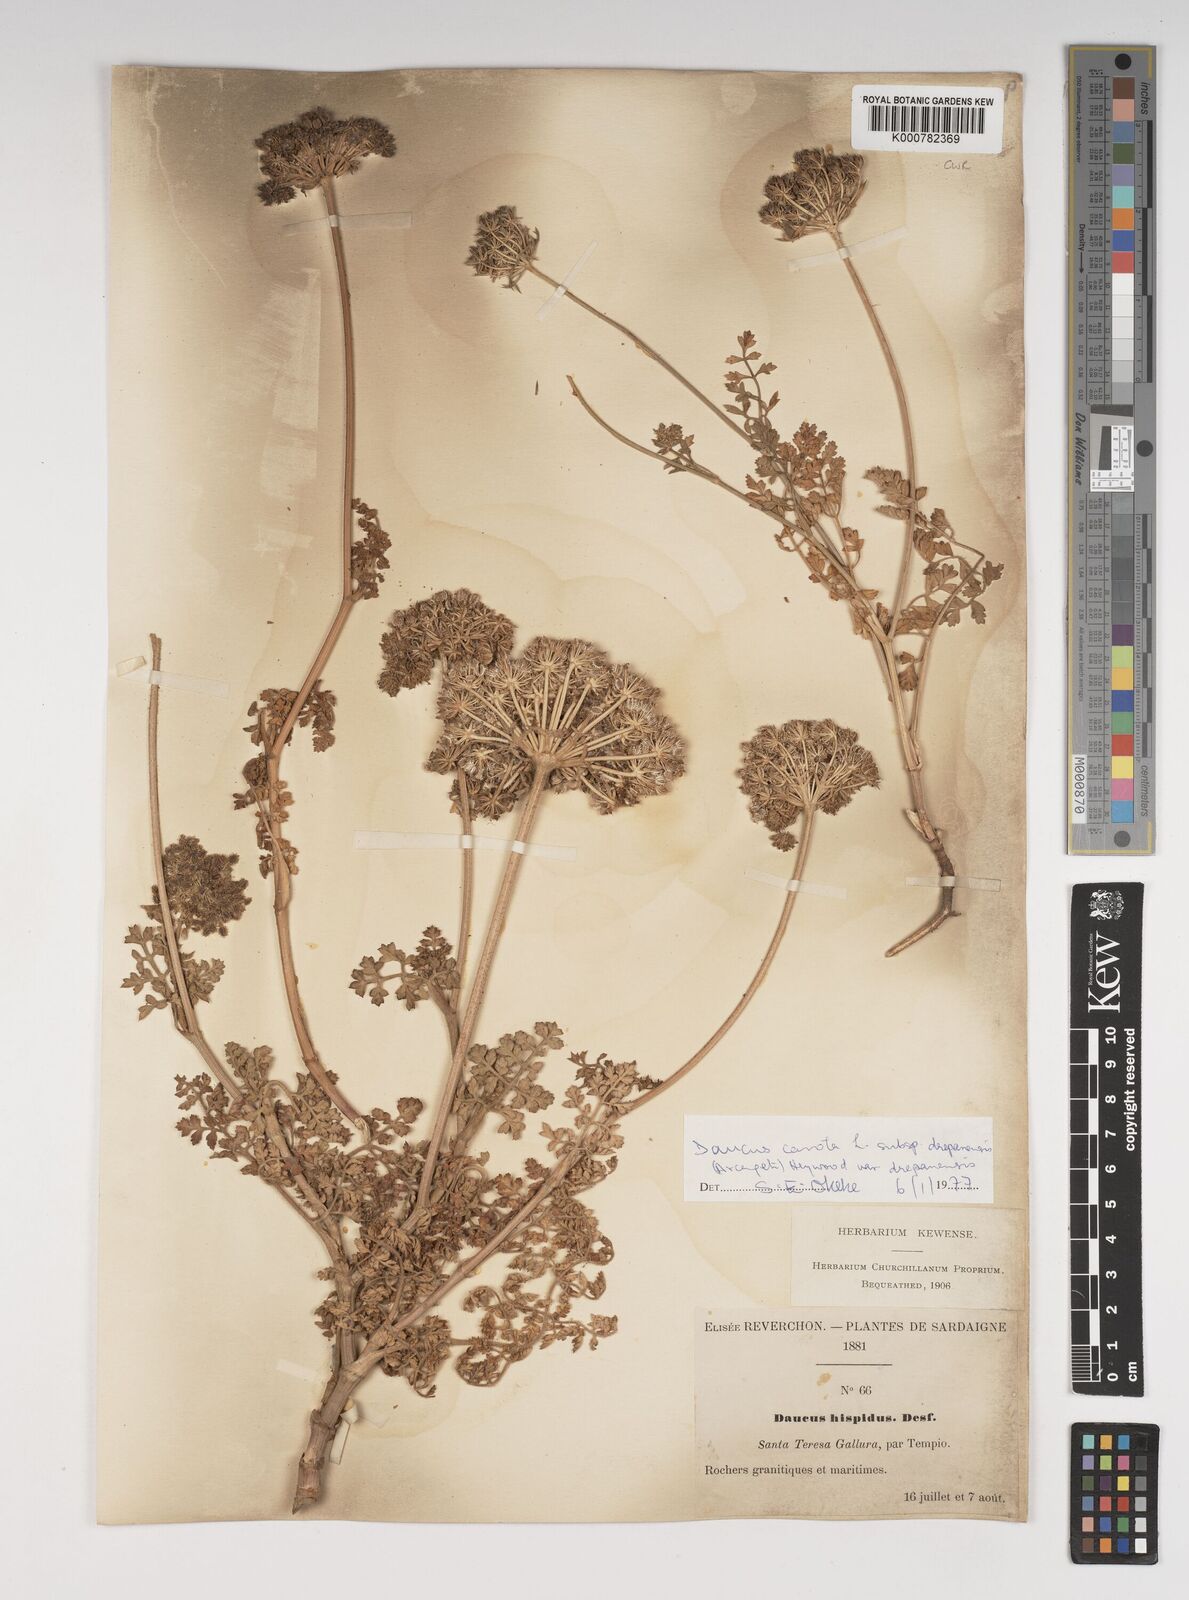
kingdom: Plantae
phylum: Tracheophyta
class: Magnoliopsida
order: Apiales
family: Apiaceae
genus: Daucus
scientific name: Daucus carota
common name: Wild carrot
